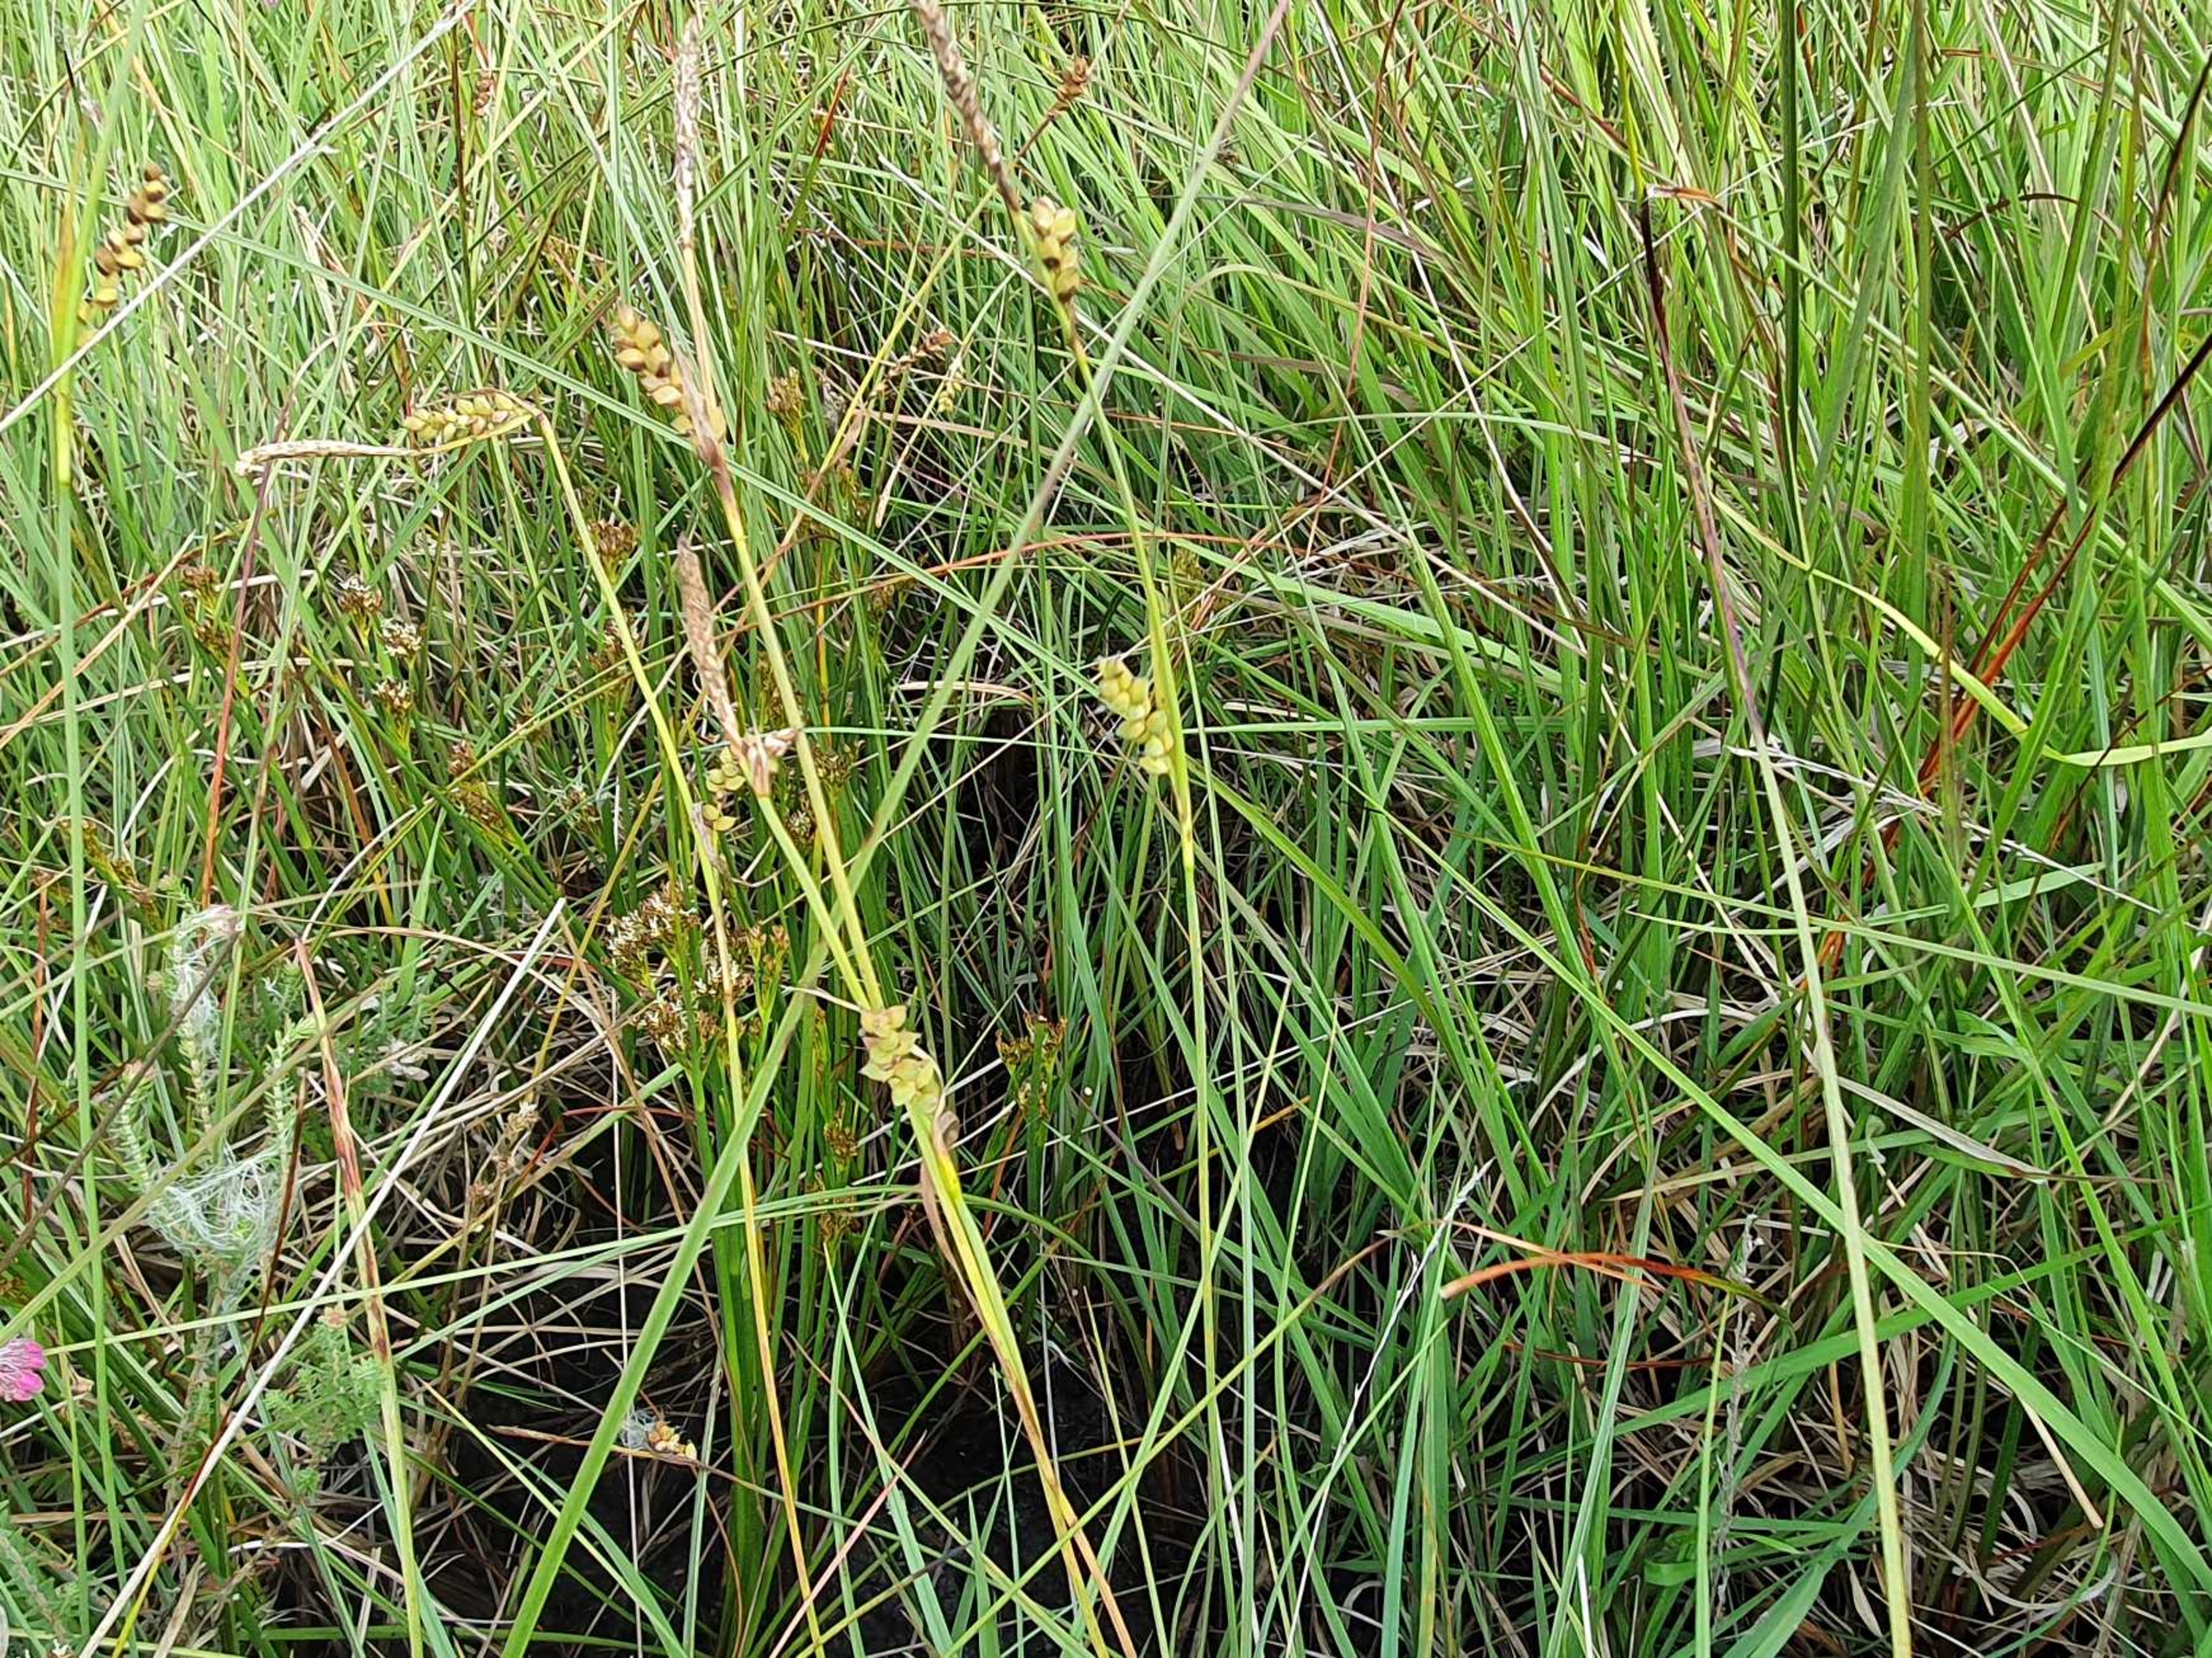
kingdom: Plantae
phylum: Tracheophyta
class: Liliopsida
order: Poales
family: Cyperaceae
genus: Carex
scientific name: Carex panicea
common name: Hirse-star
